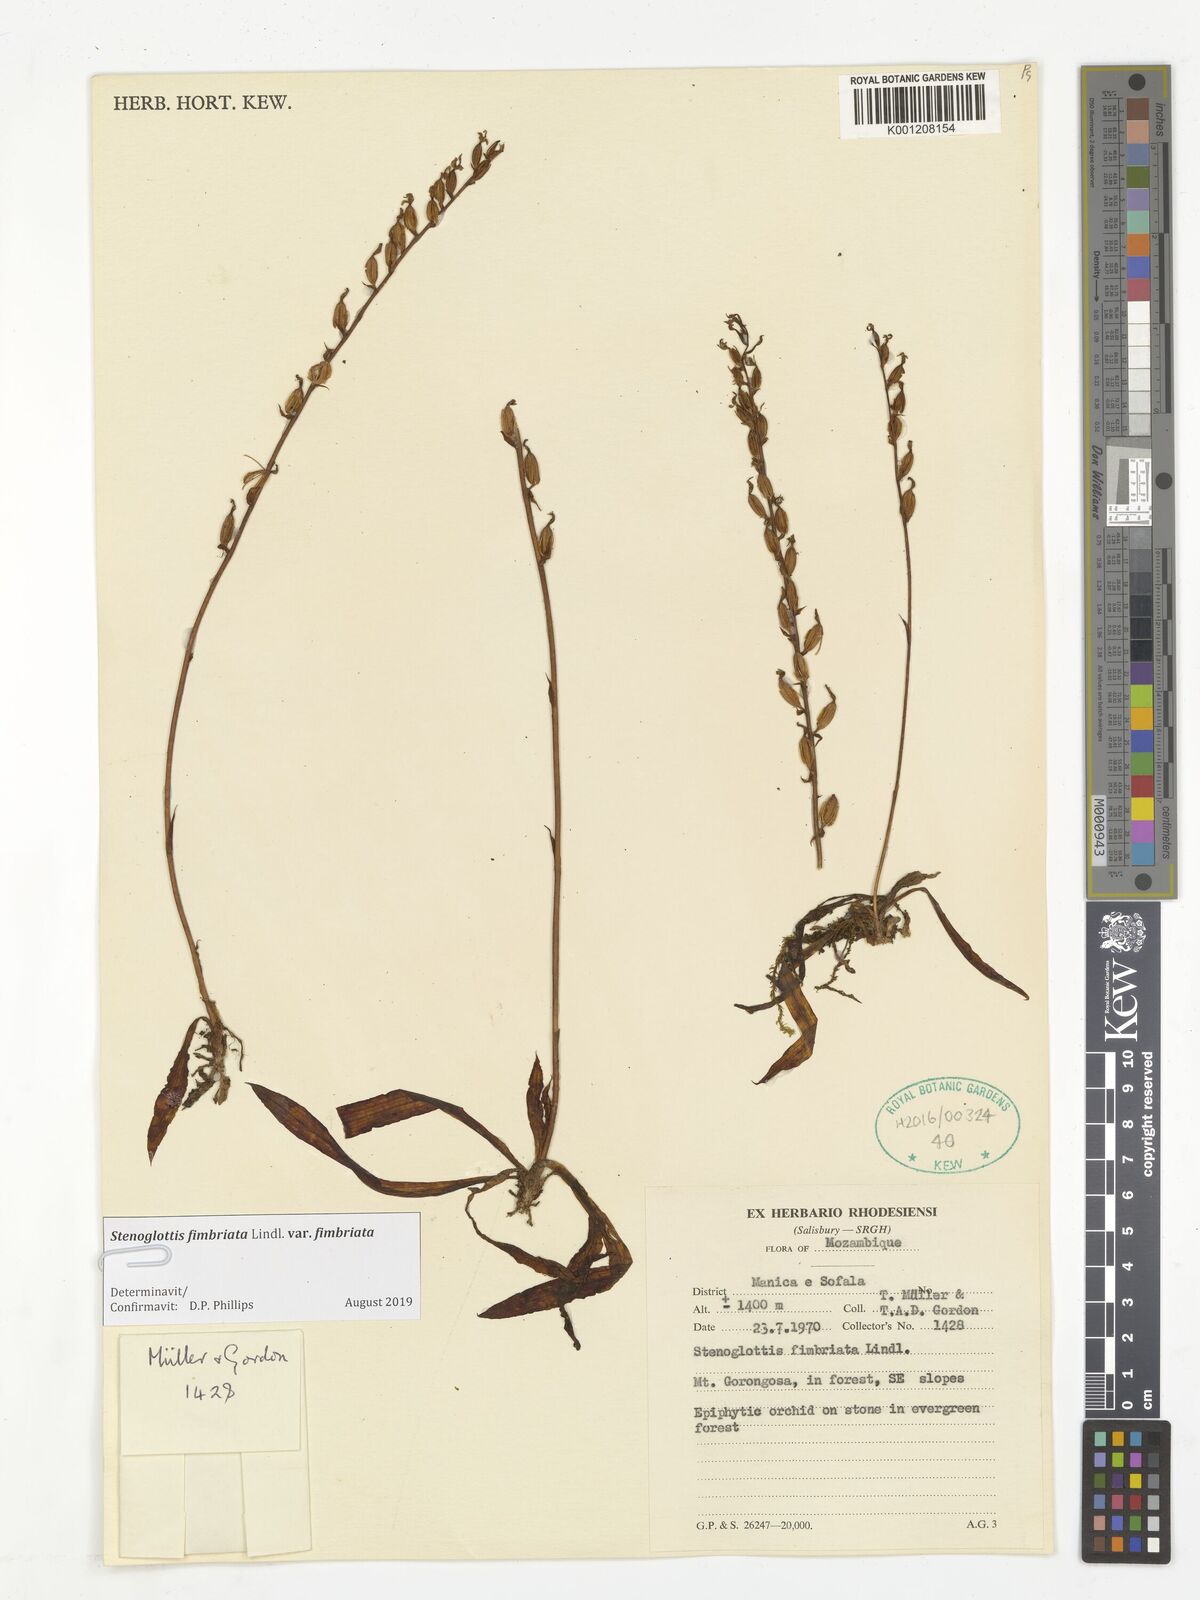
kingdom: Plantae
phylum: Tracheophyta
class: Liliopsida
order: Asparagales
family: Orchidaceae
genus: Stenoglottis
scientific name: Stenoglottis fimbriata
